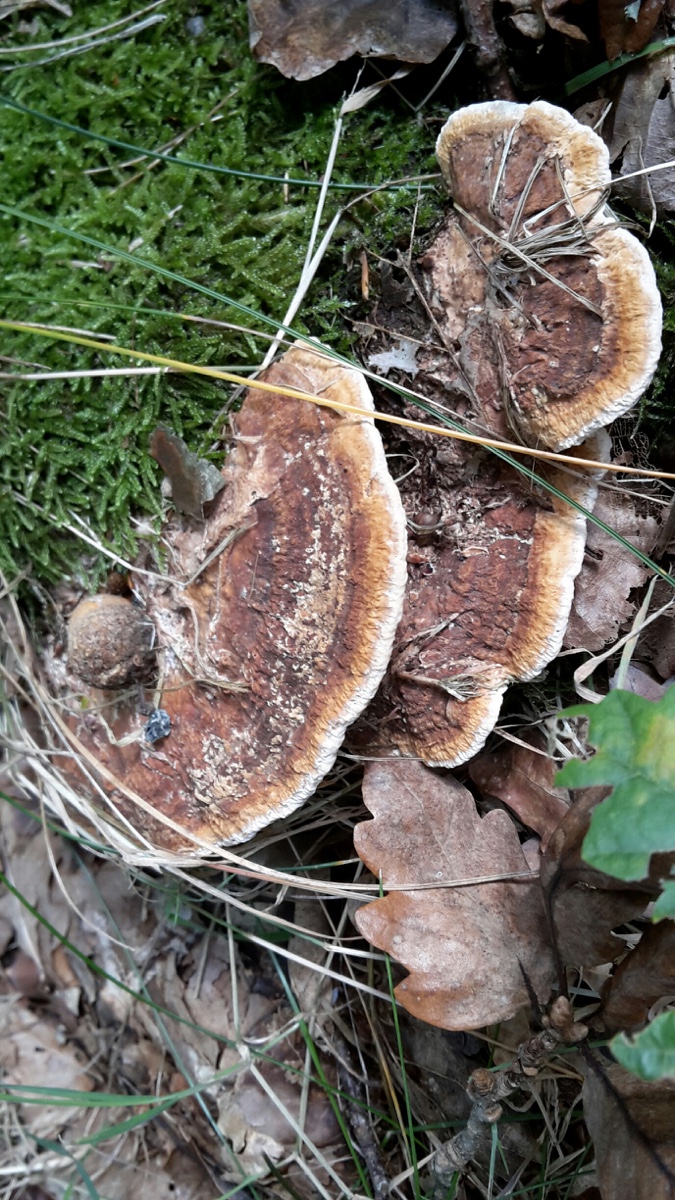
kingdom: Fungi
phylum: Basidiomycota
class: Agaricomycetes
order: Polyporales
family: Fomitopsidaceae
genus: Daedalea
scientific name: Daedalea quercina
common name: ege-labyrintsvamp
